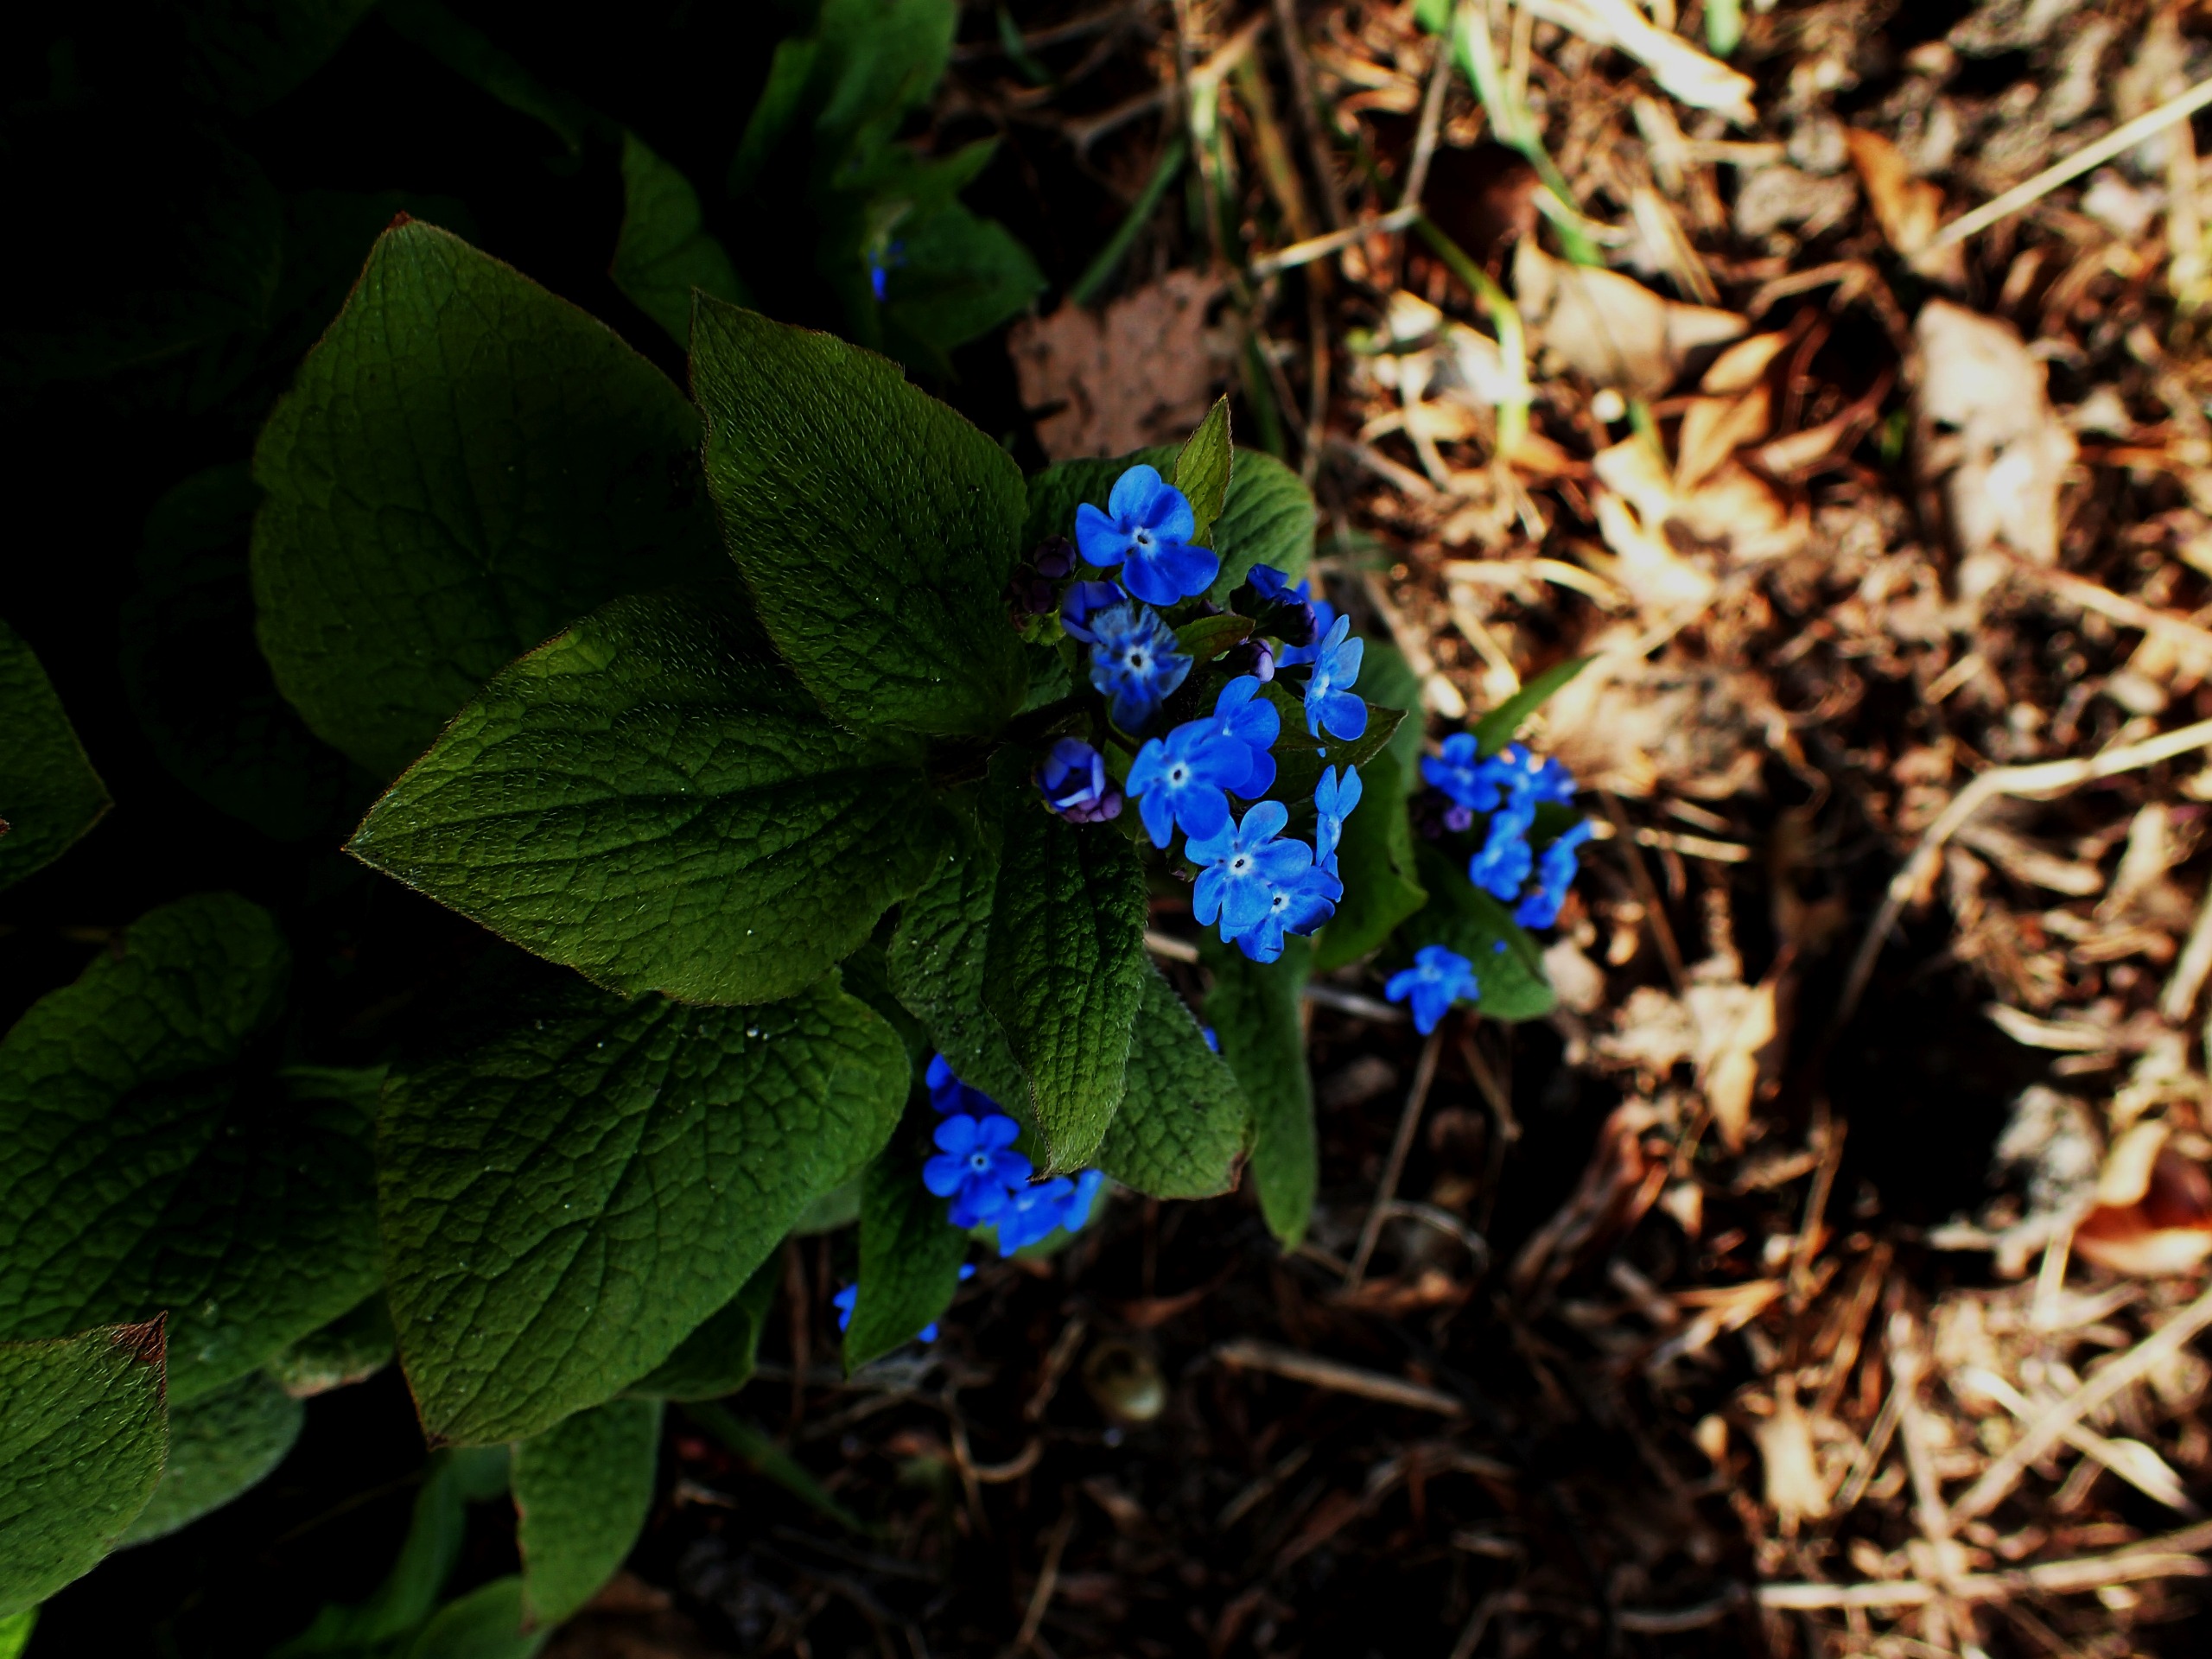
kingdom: Plantae
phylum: Tracheophyta
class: Magnoliopsida
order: Boraginales
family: Boraginaceae
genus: Brunnera
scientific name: Brunnera macrophylla
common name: Kærmindesøster
